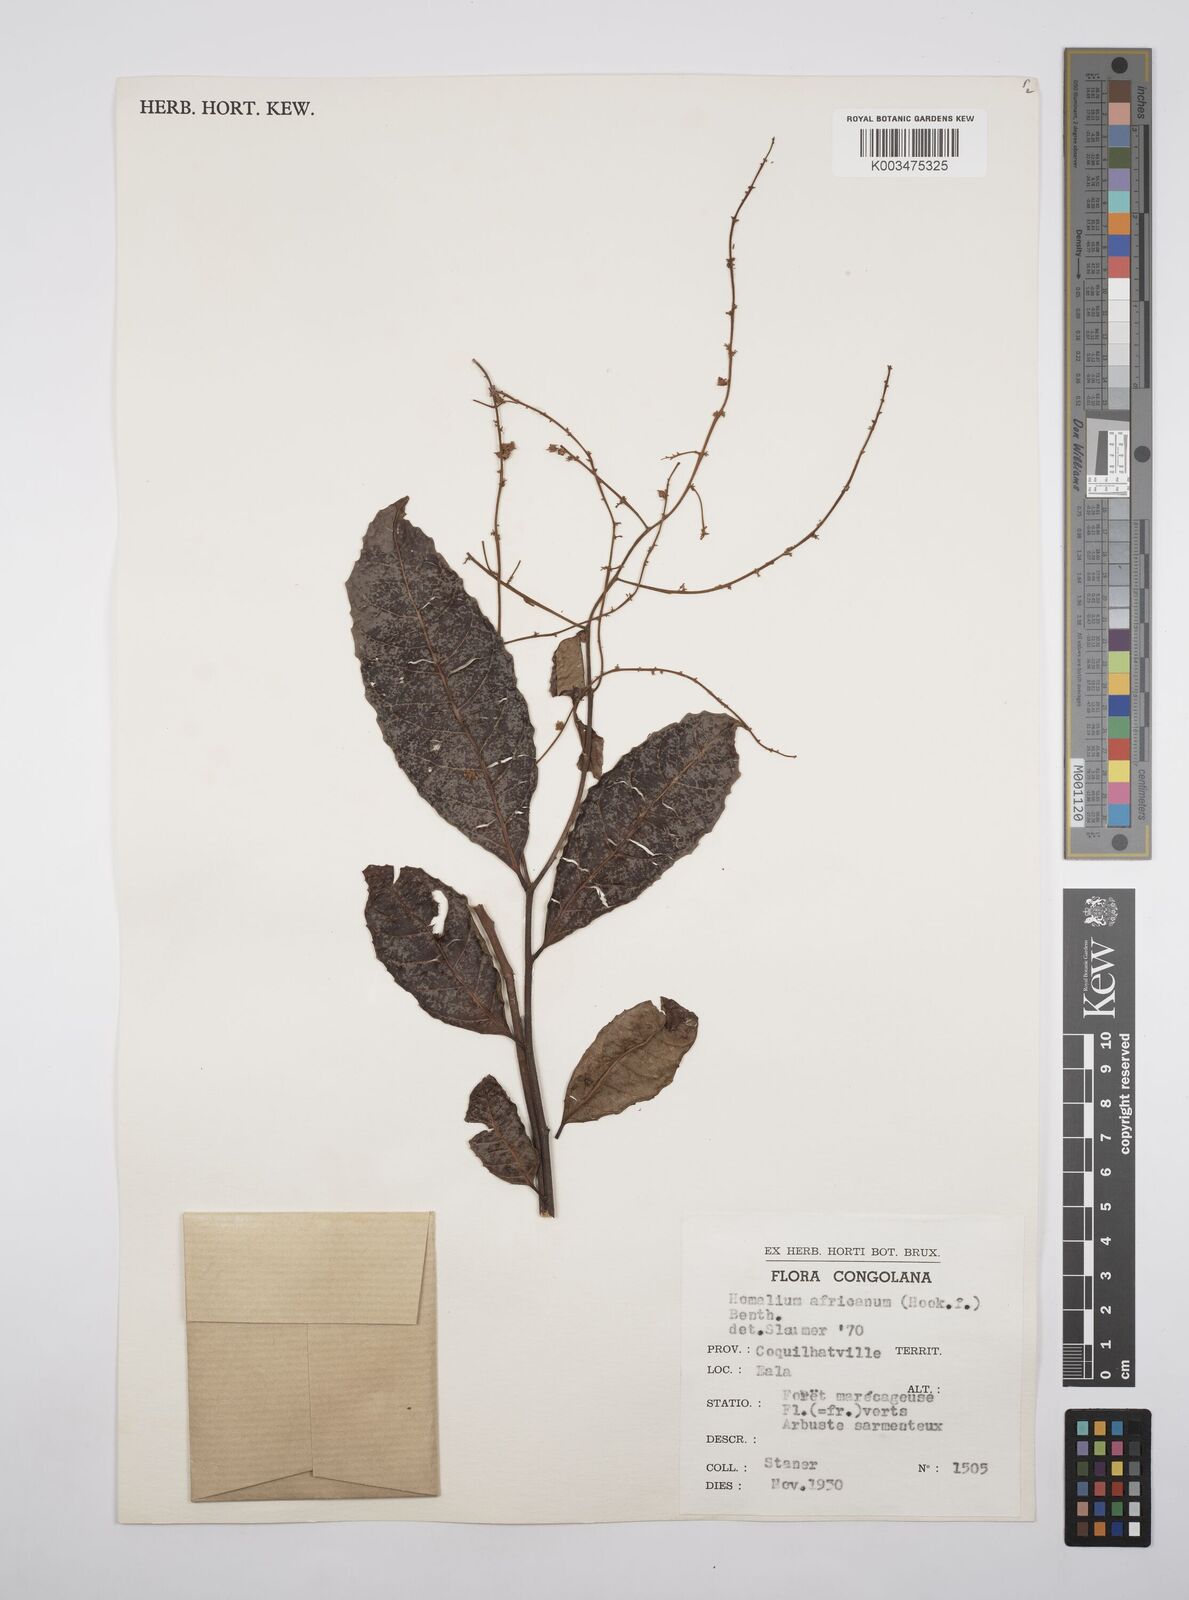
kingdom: Plantae
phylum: Tracheophyta
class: Magnoliopsida
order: Malpighiales
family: Salicaceae
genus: Homalium
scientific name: Homalium africanum
